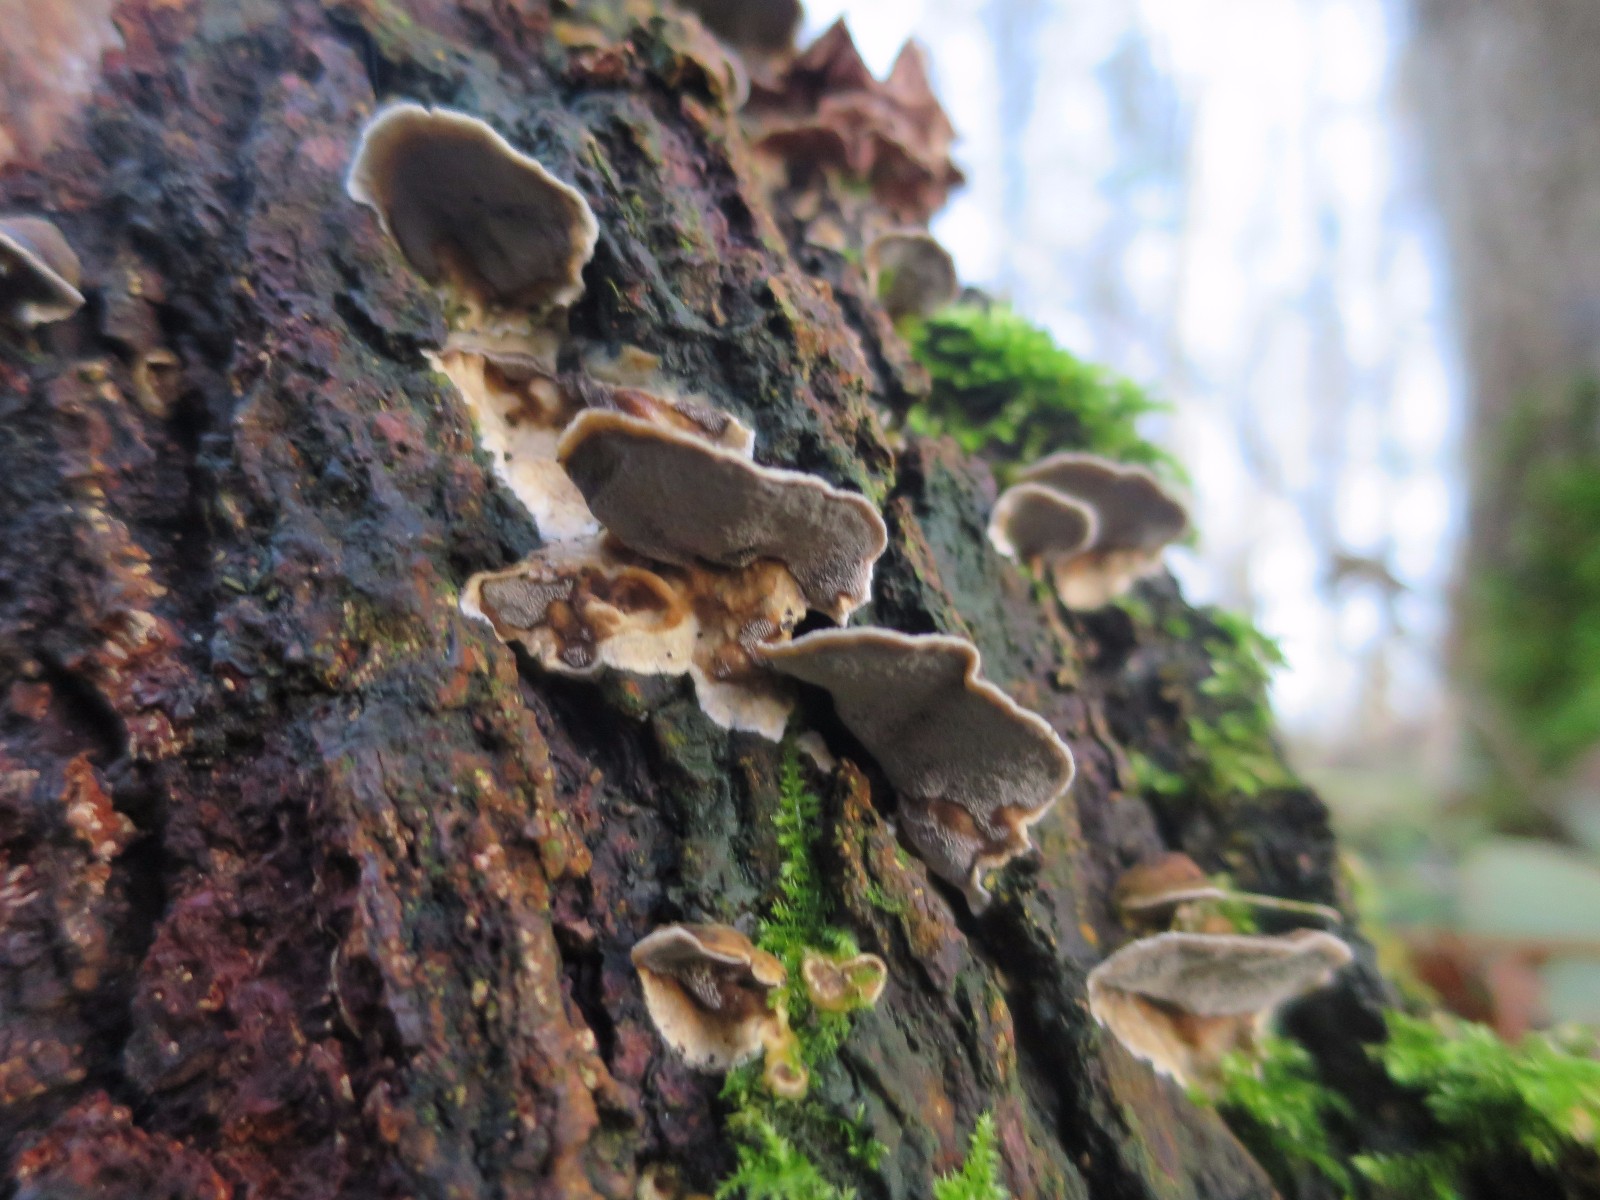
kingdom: Fungi
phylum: Basidiomycota
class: Agaricomycetes
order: Polyporales
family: Phanerochaetaceae
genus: Bjerkandera
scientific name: Bjerkandera adusta
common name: sveden sodporesvamp
